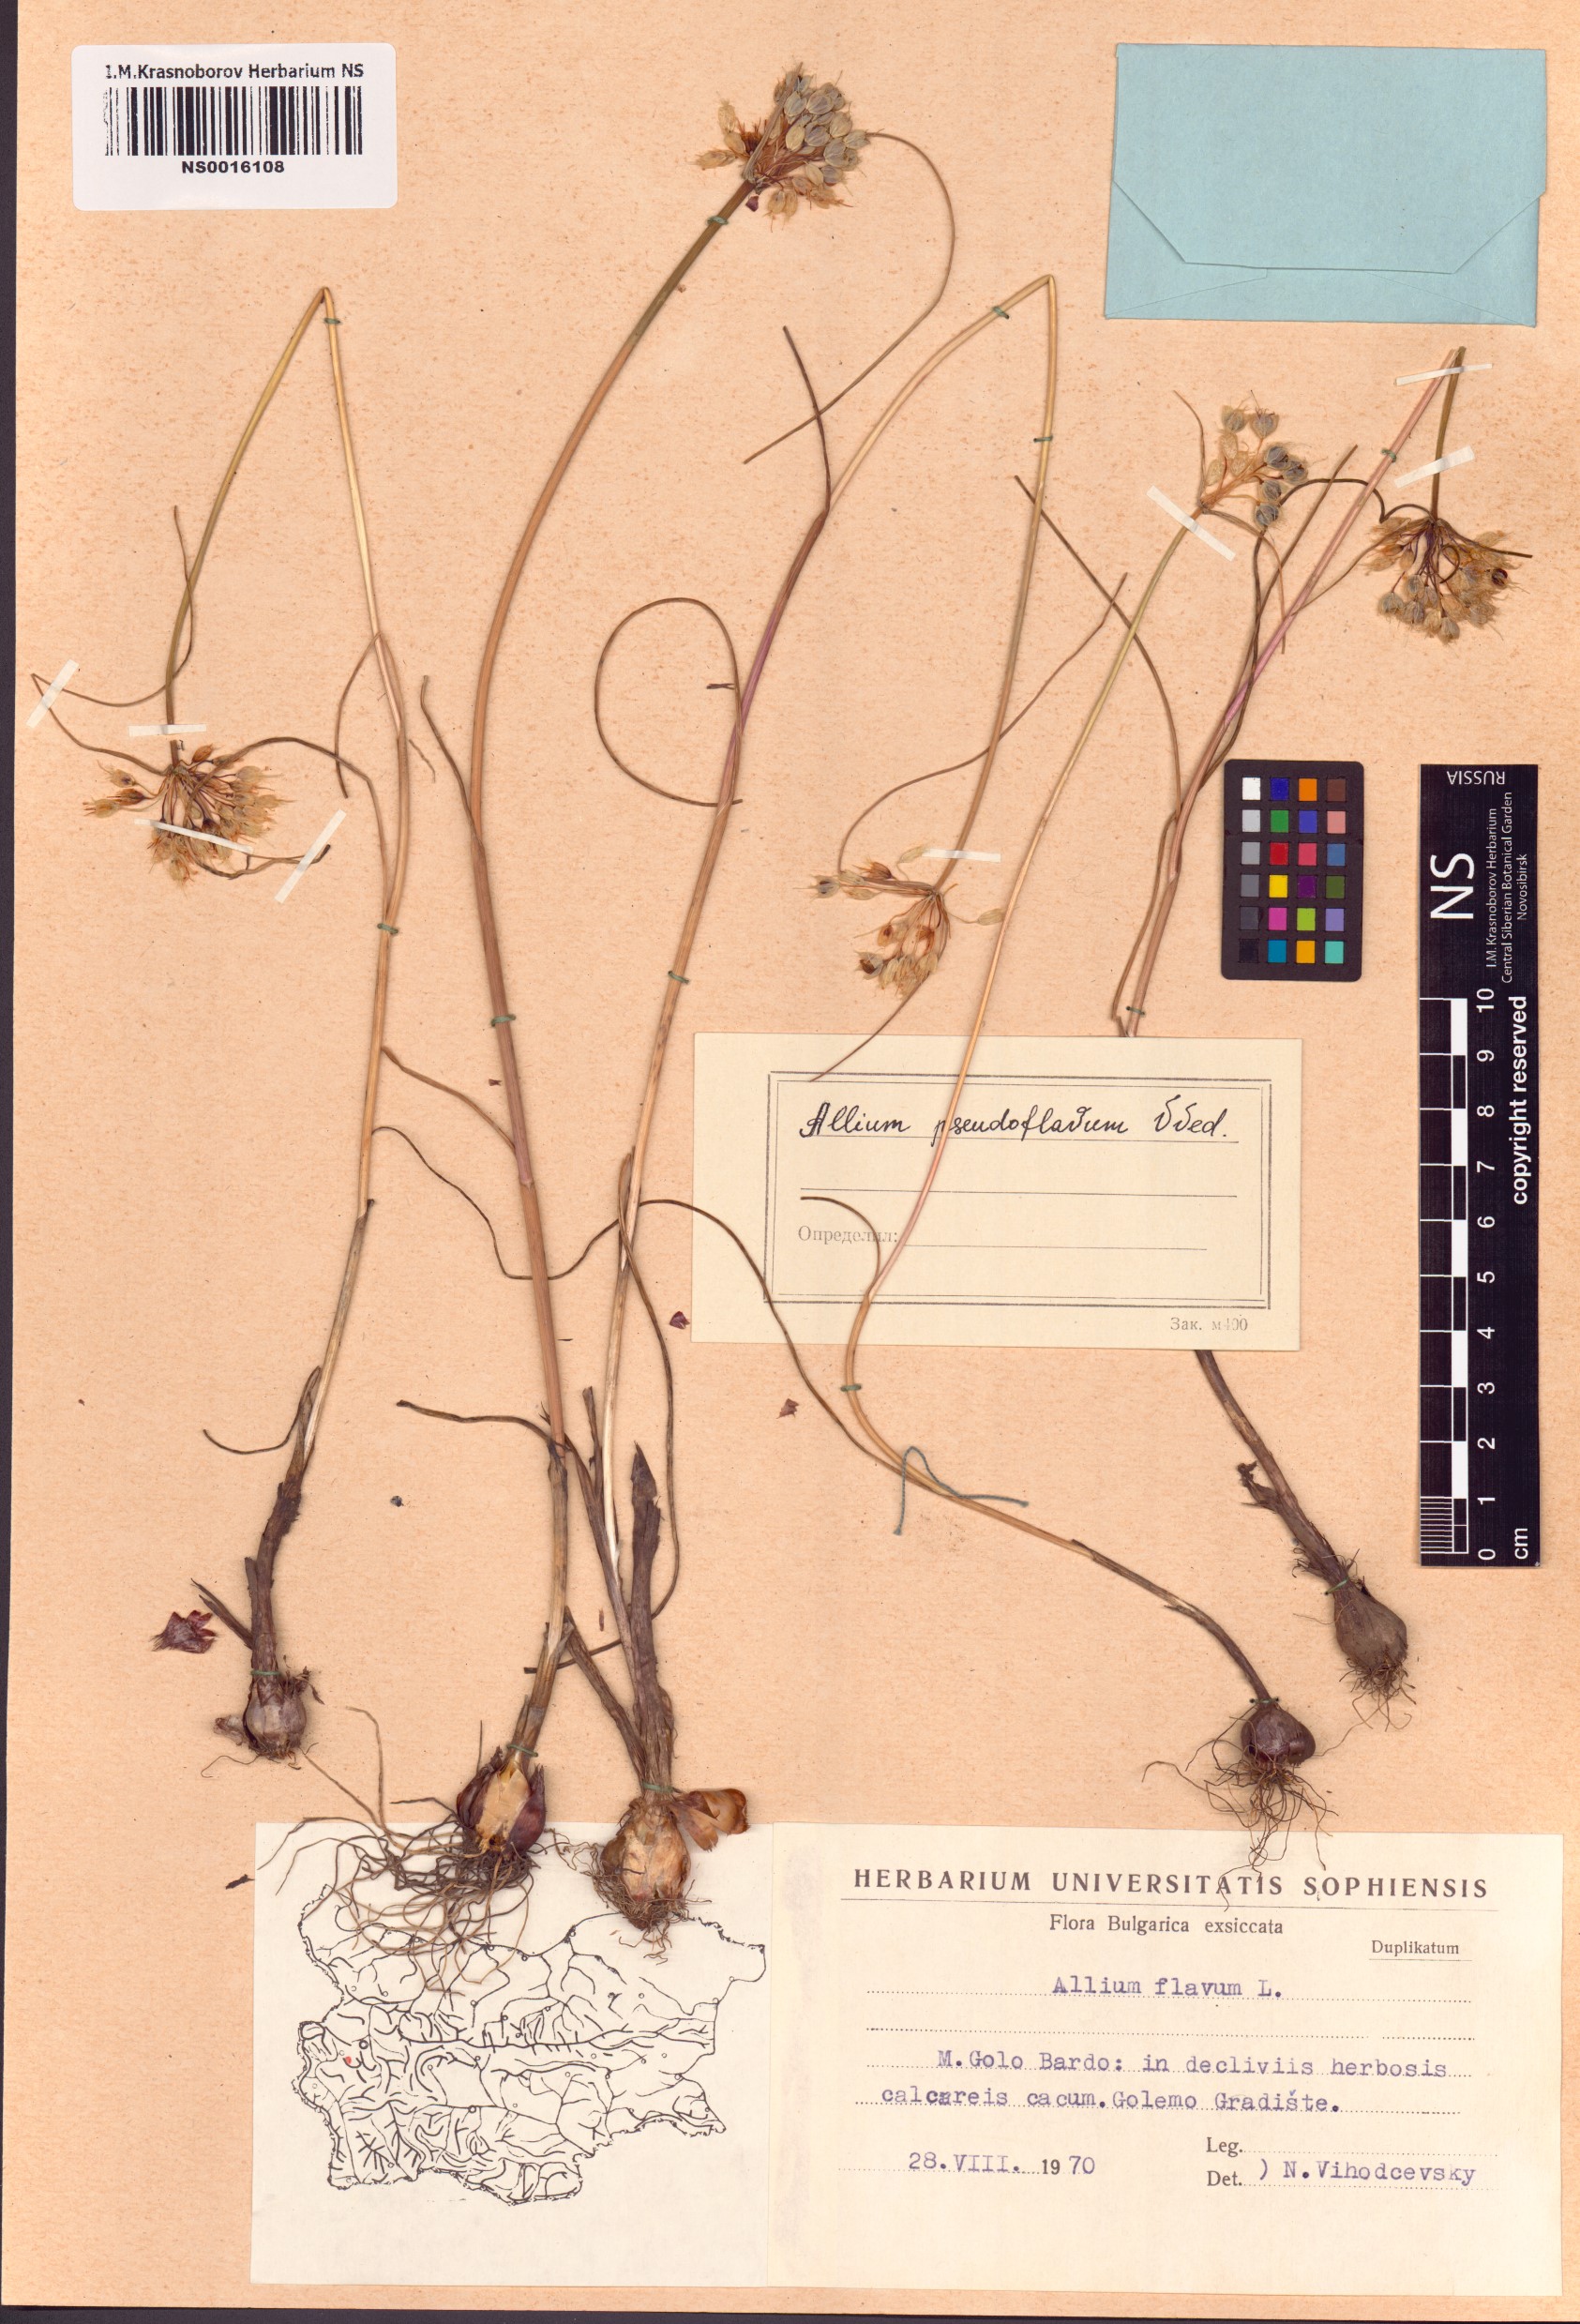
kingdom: Plantae
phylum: Tracheophyta
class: Liliopsida
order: Asparagales
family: Amaryllidaceae
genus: Allium
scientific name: Allium flavum
